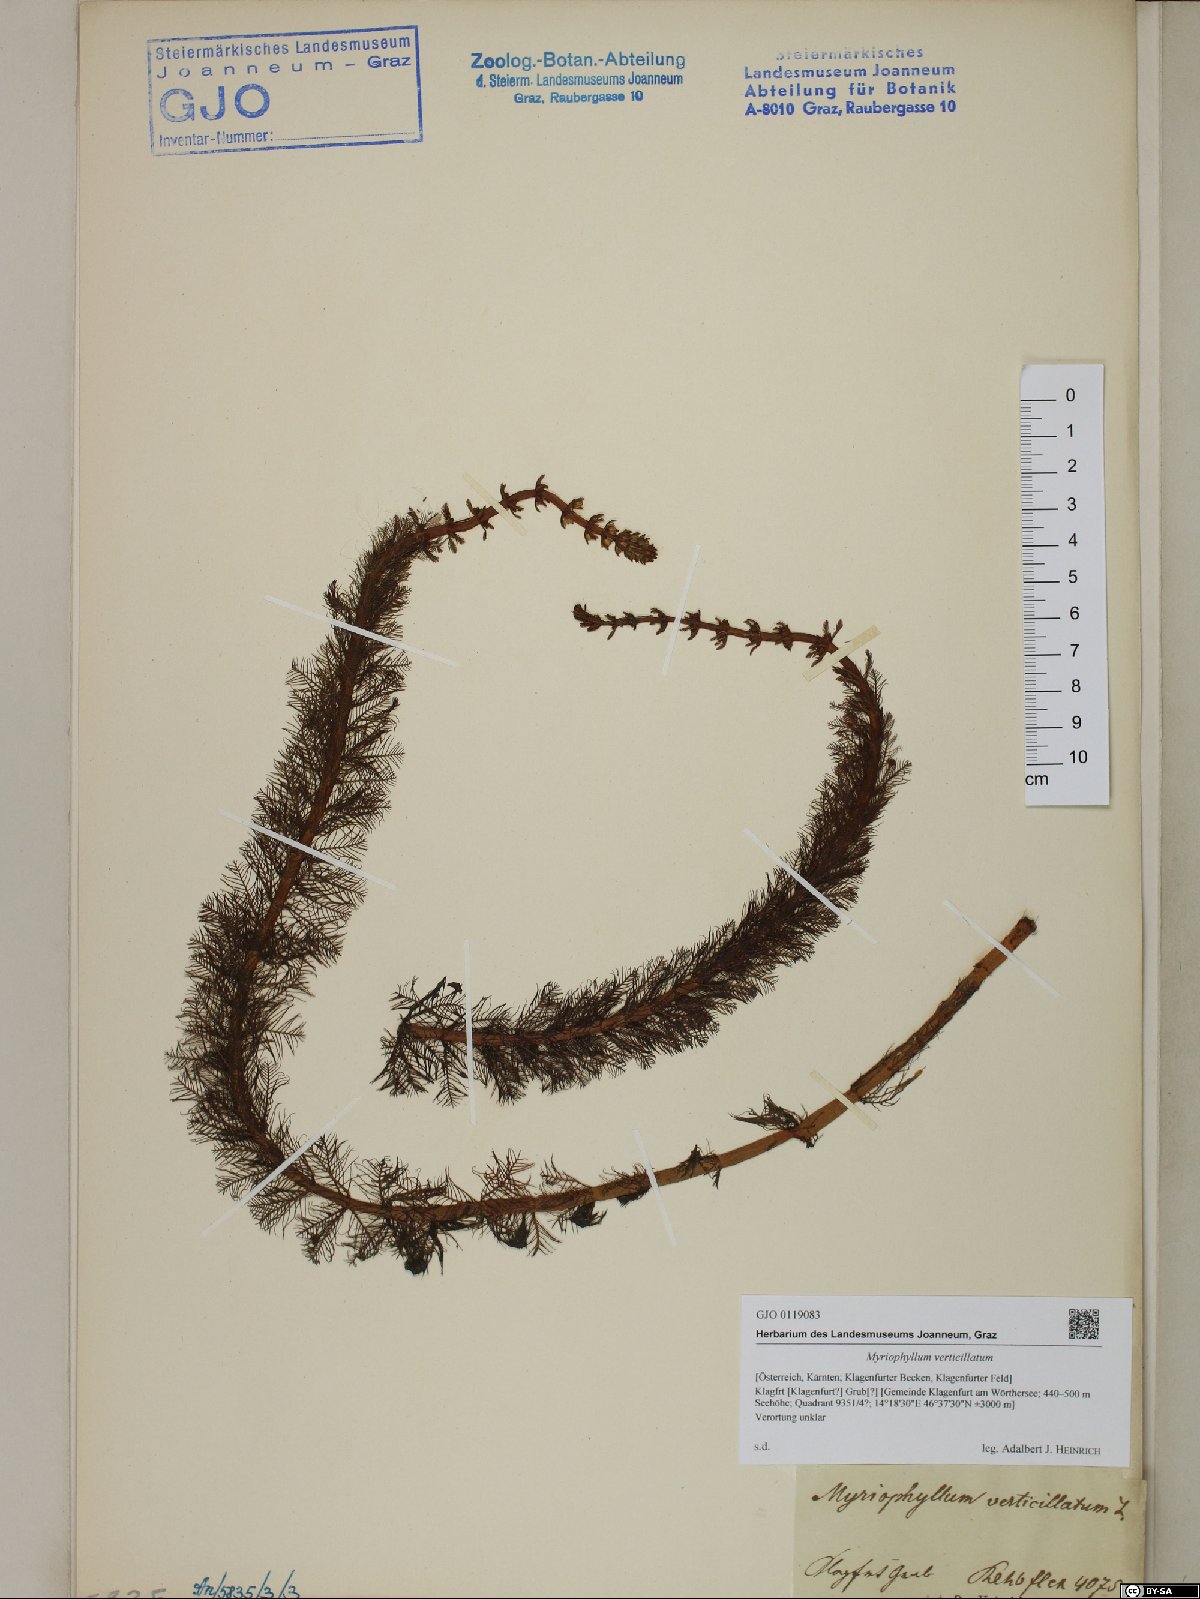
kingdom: Plantae
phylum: Tracheophyta
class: Magnoliopsida
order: Saxifragales
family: Haloragaceae
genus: Myriophyllum
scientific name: Myriophyllum verticillatum
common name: Whorled water-milfoil
